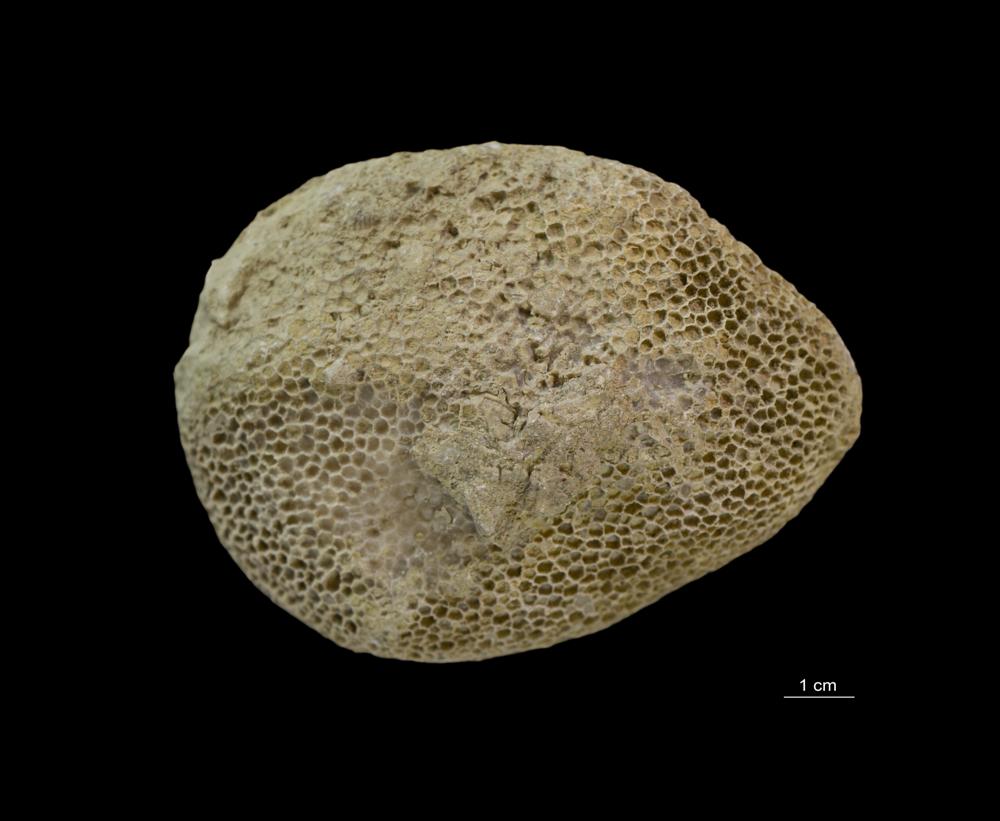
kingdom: Animalia
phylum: Cnidaria
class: Anthozoa
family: Favositidae
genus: Favosites
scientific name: Favosites
